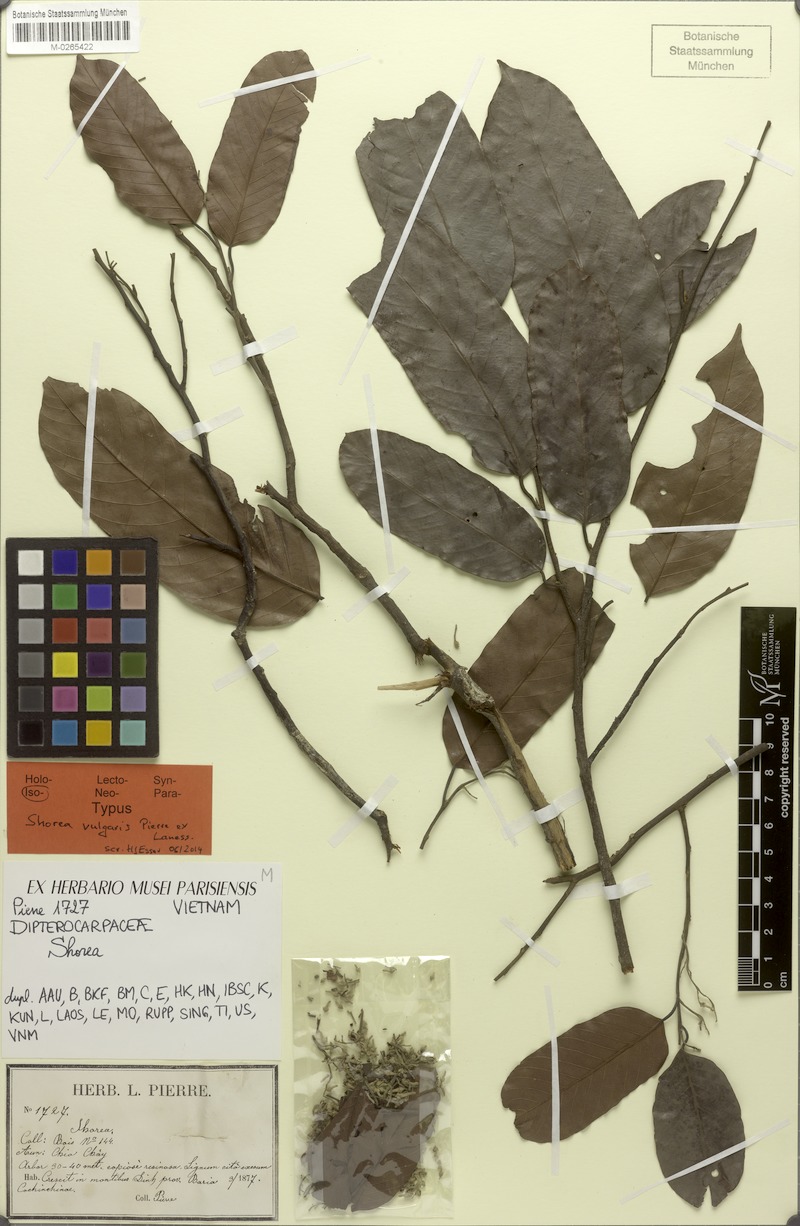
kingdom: Plantae
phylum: Tracheophyta
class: Magnoliopsida
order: Malvales
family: Dipterocarpaceae
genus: Shorea
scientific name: Shorea guiso
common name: Red balau
